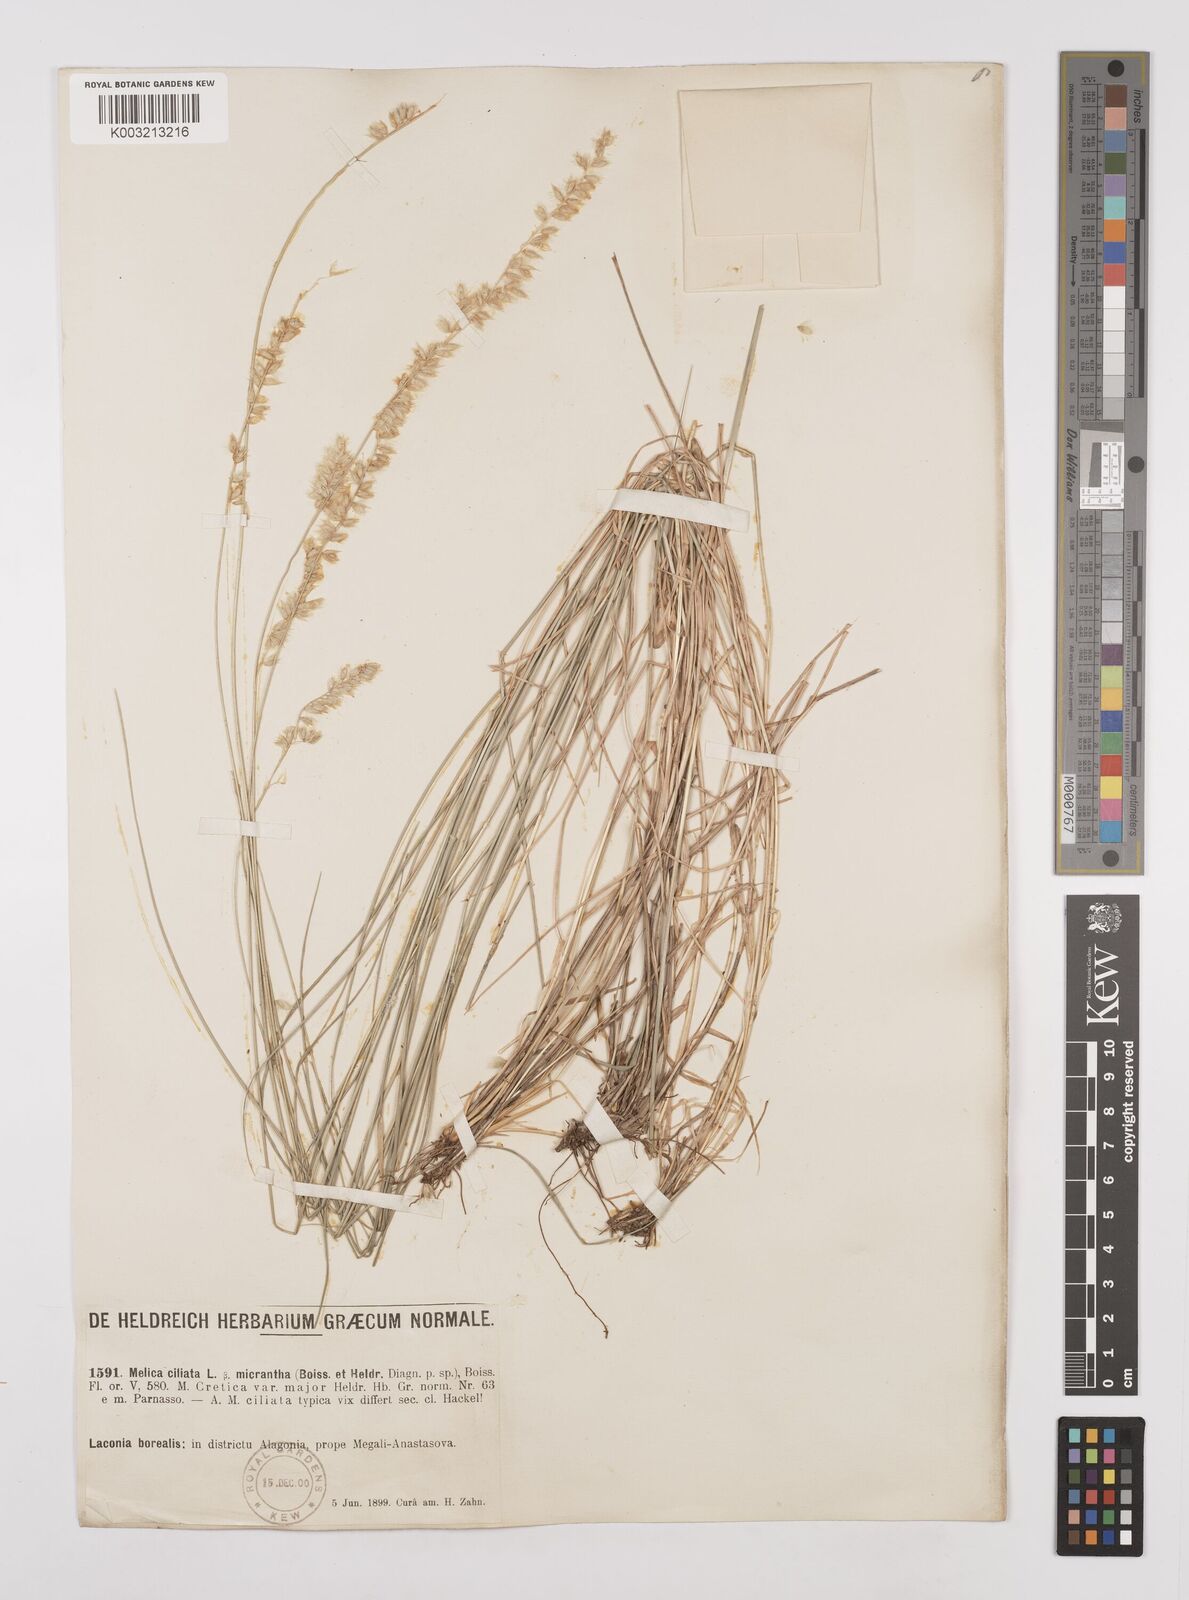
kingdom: Plantae
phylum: Tracheophyta
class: Liliopsida
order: Poales
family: Poaceae
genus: Melica
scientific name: Melica ciliata
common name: Hairy melicgrass
